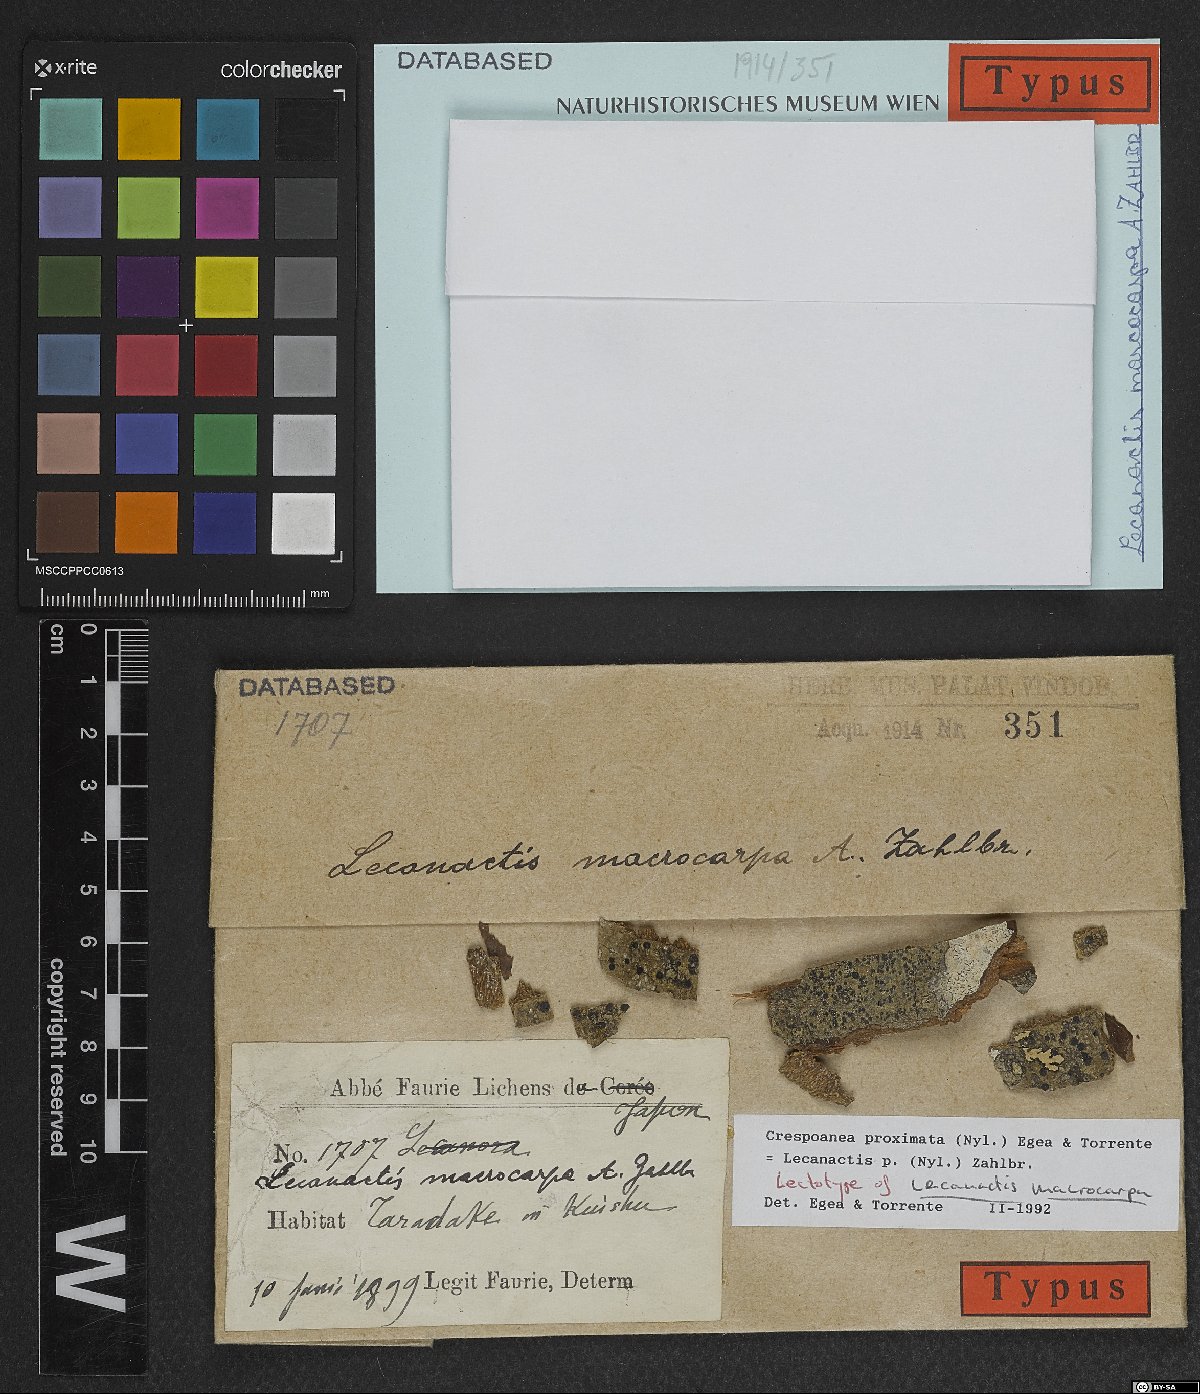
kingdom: Fungi
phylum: Ascomycota
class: Arthoniomycetes
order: Arthoniales
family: Opegraphaceae
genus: Cresponea
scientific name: Cresponea proximata
